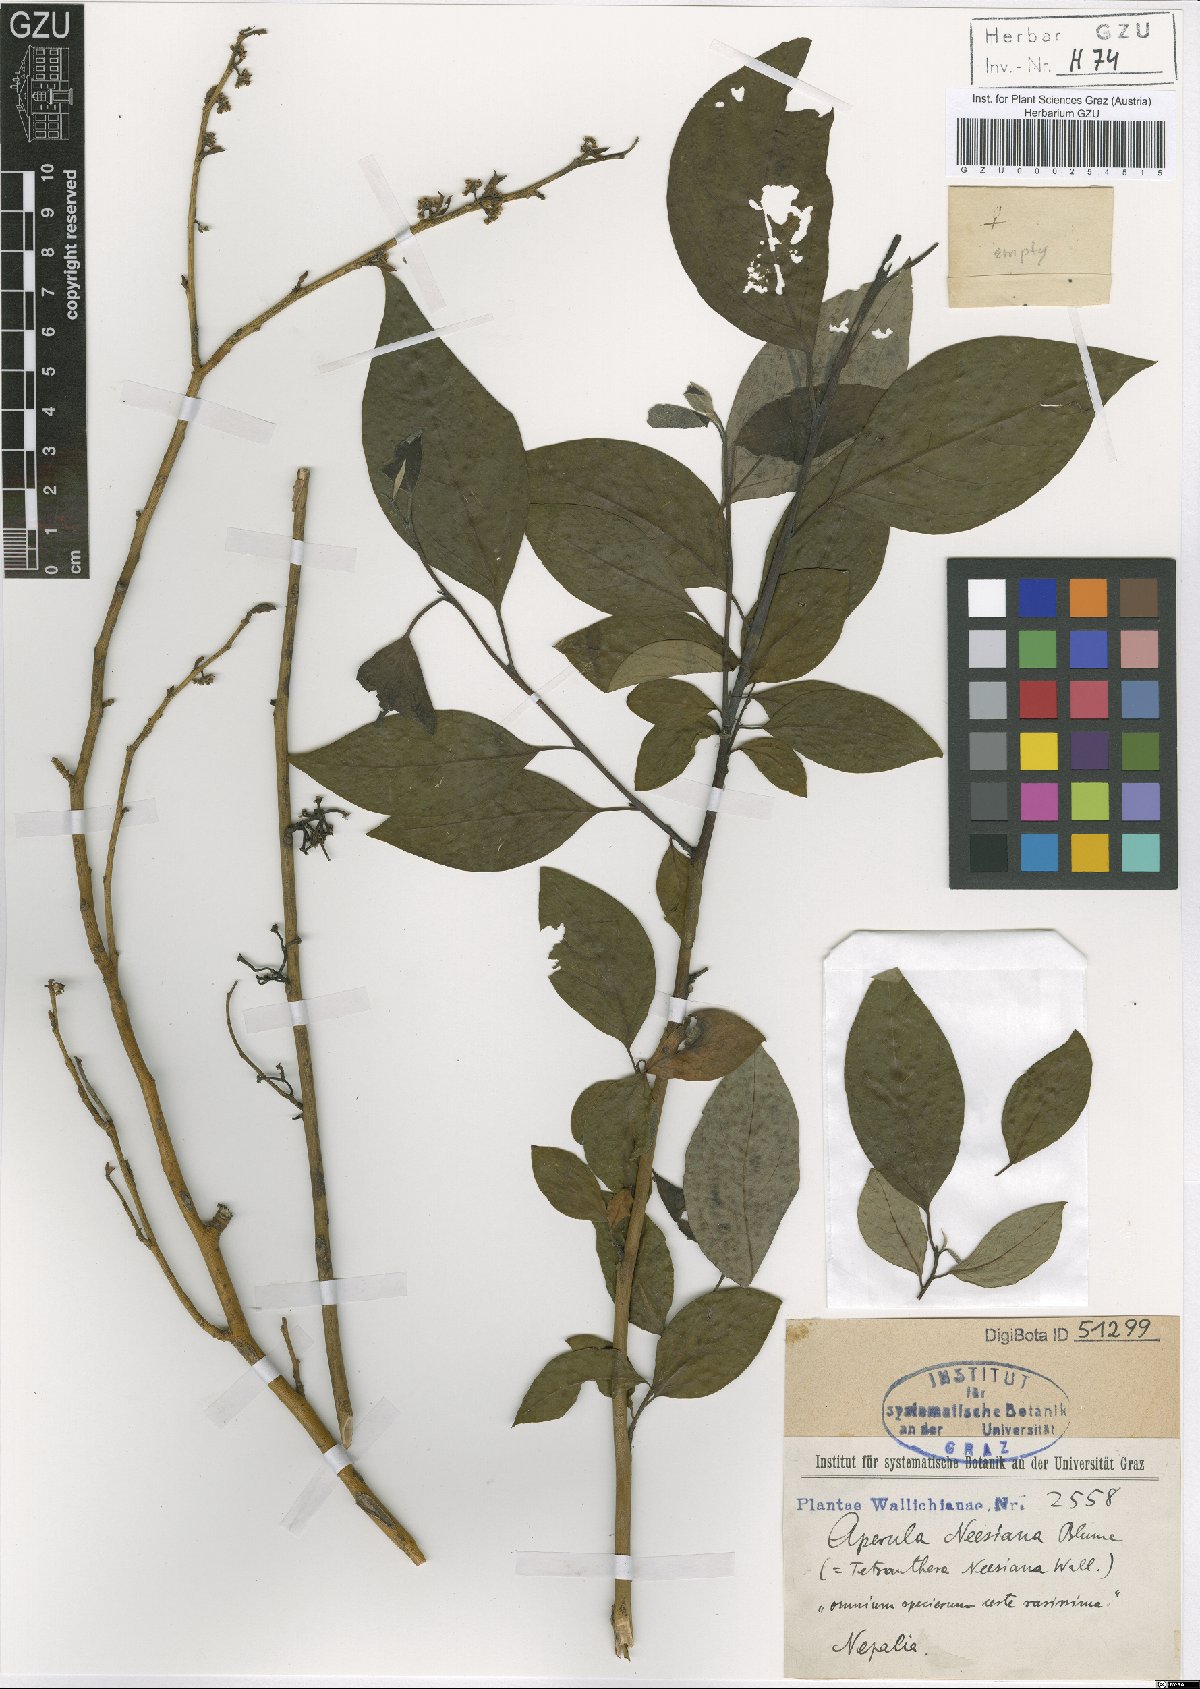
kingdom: Plantae
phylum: Tracheophyta
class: Magnoliopsida
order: Laurales
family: Lauraceae
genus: Lindera
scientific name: Lindera neesiana
